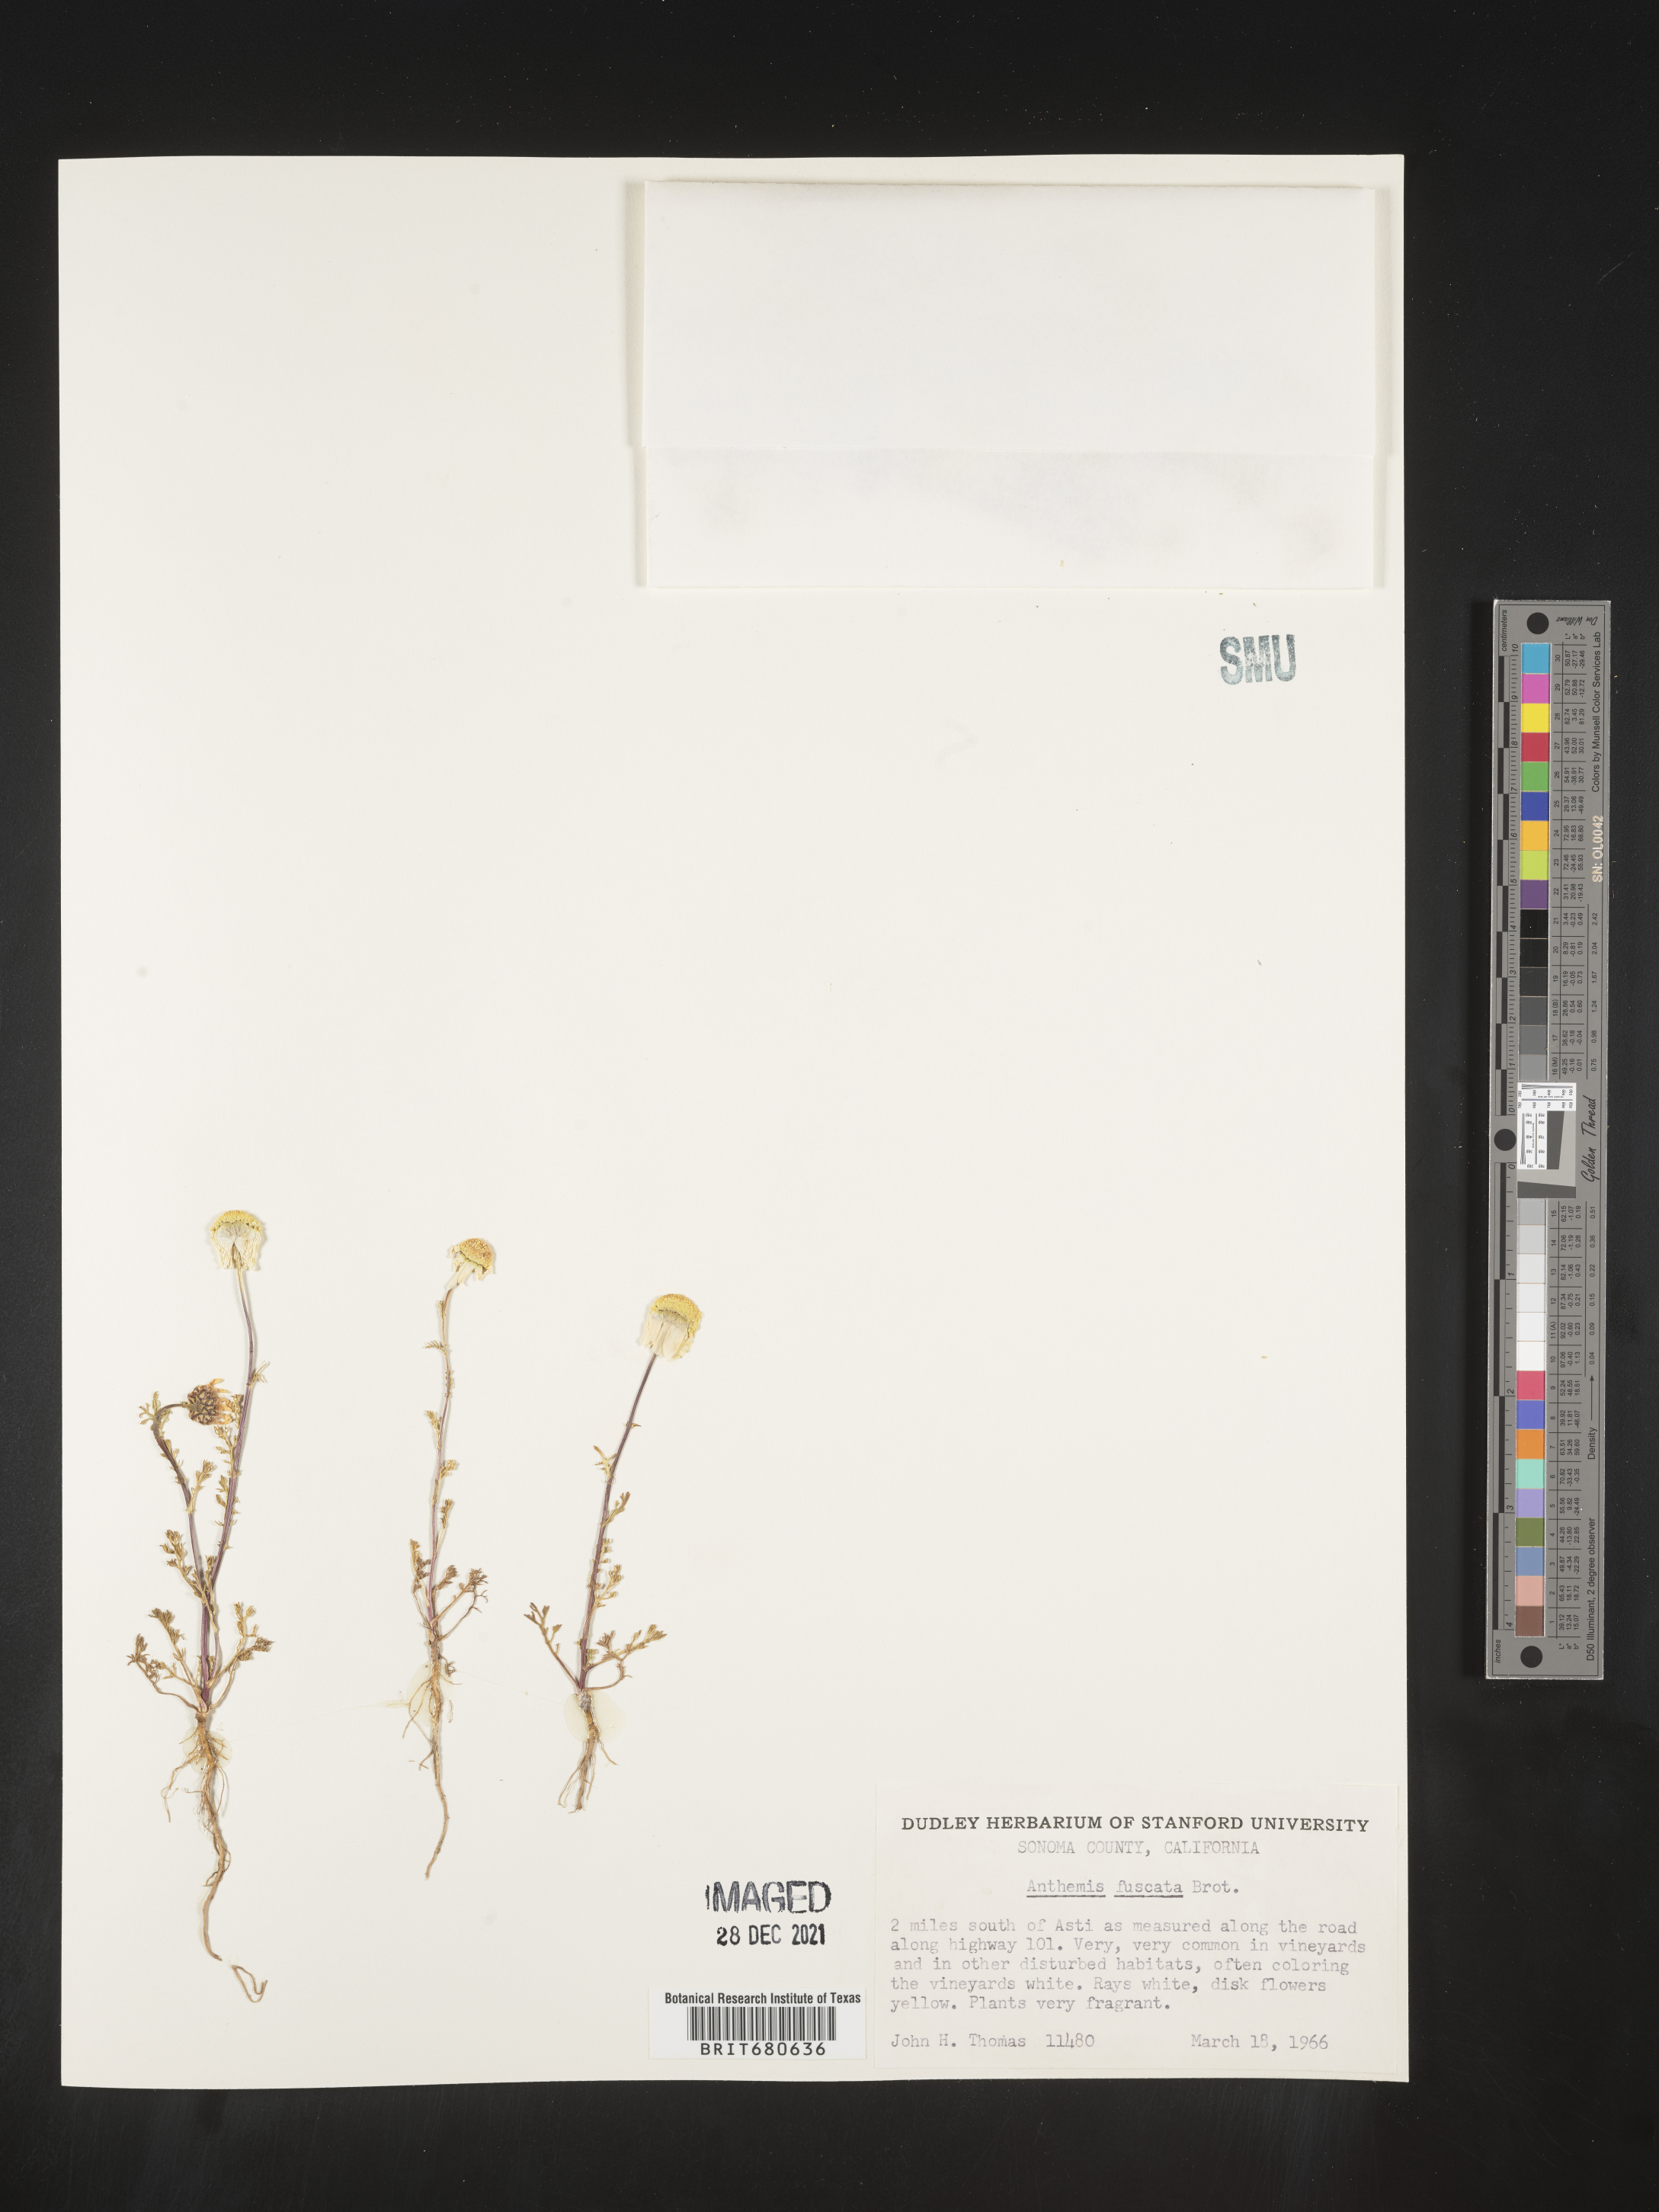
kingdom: Plantae
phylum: Tracheophyta
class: Magnoliopsida
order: Asterales
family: Asteraceae
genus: Anthemis
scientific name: Anthemis
